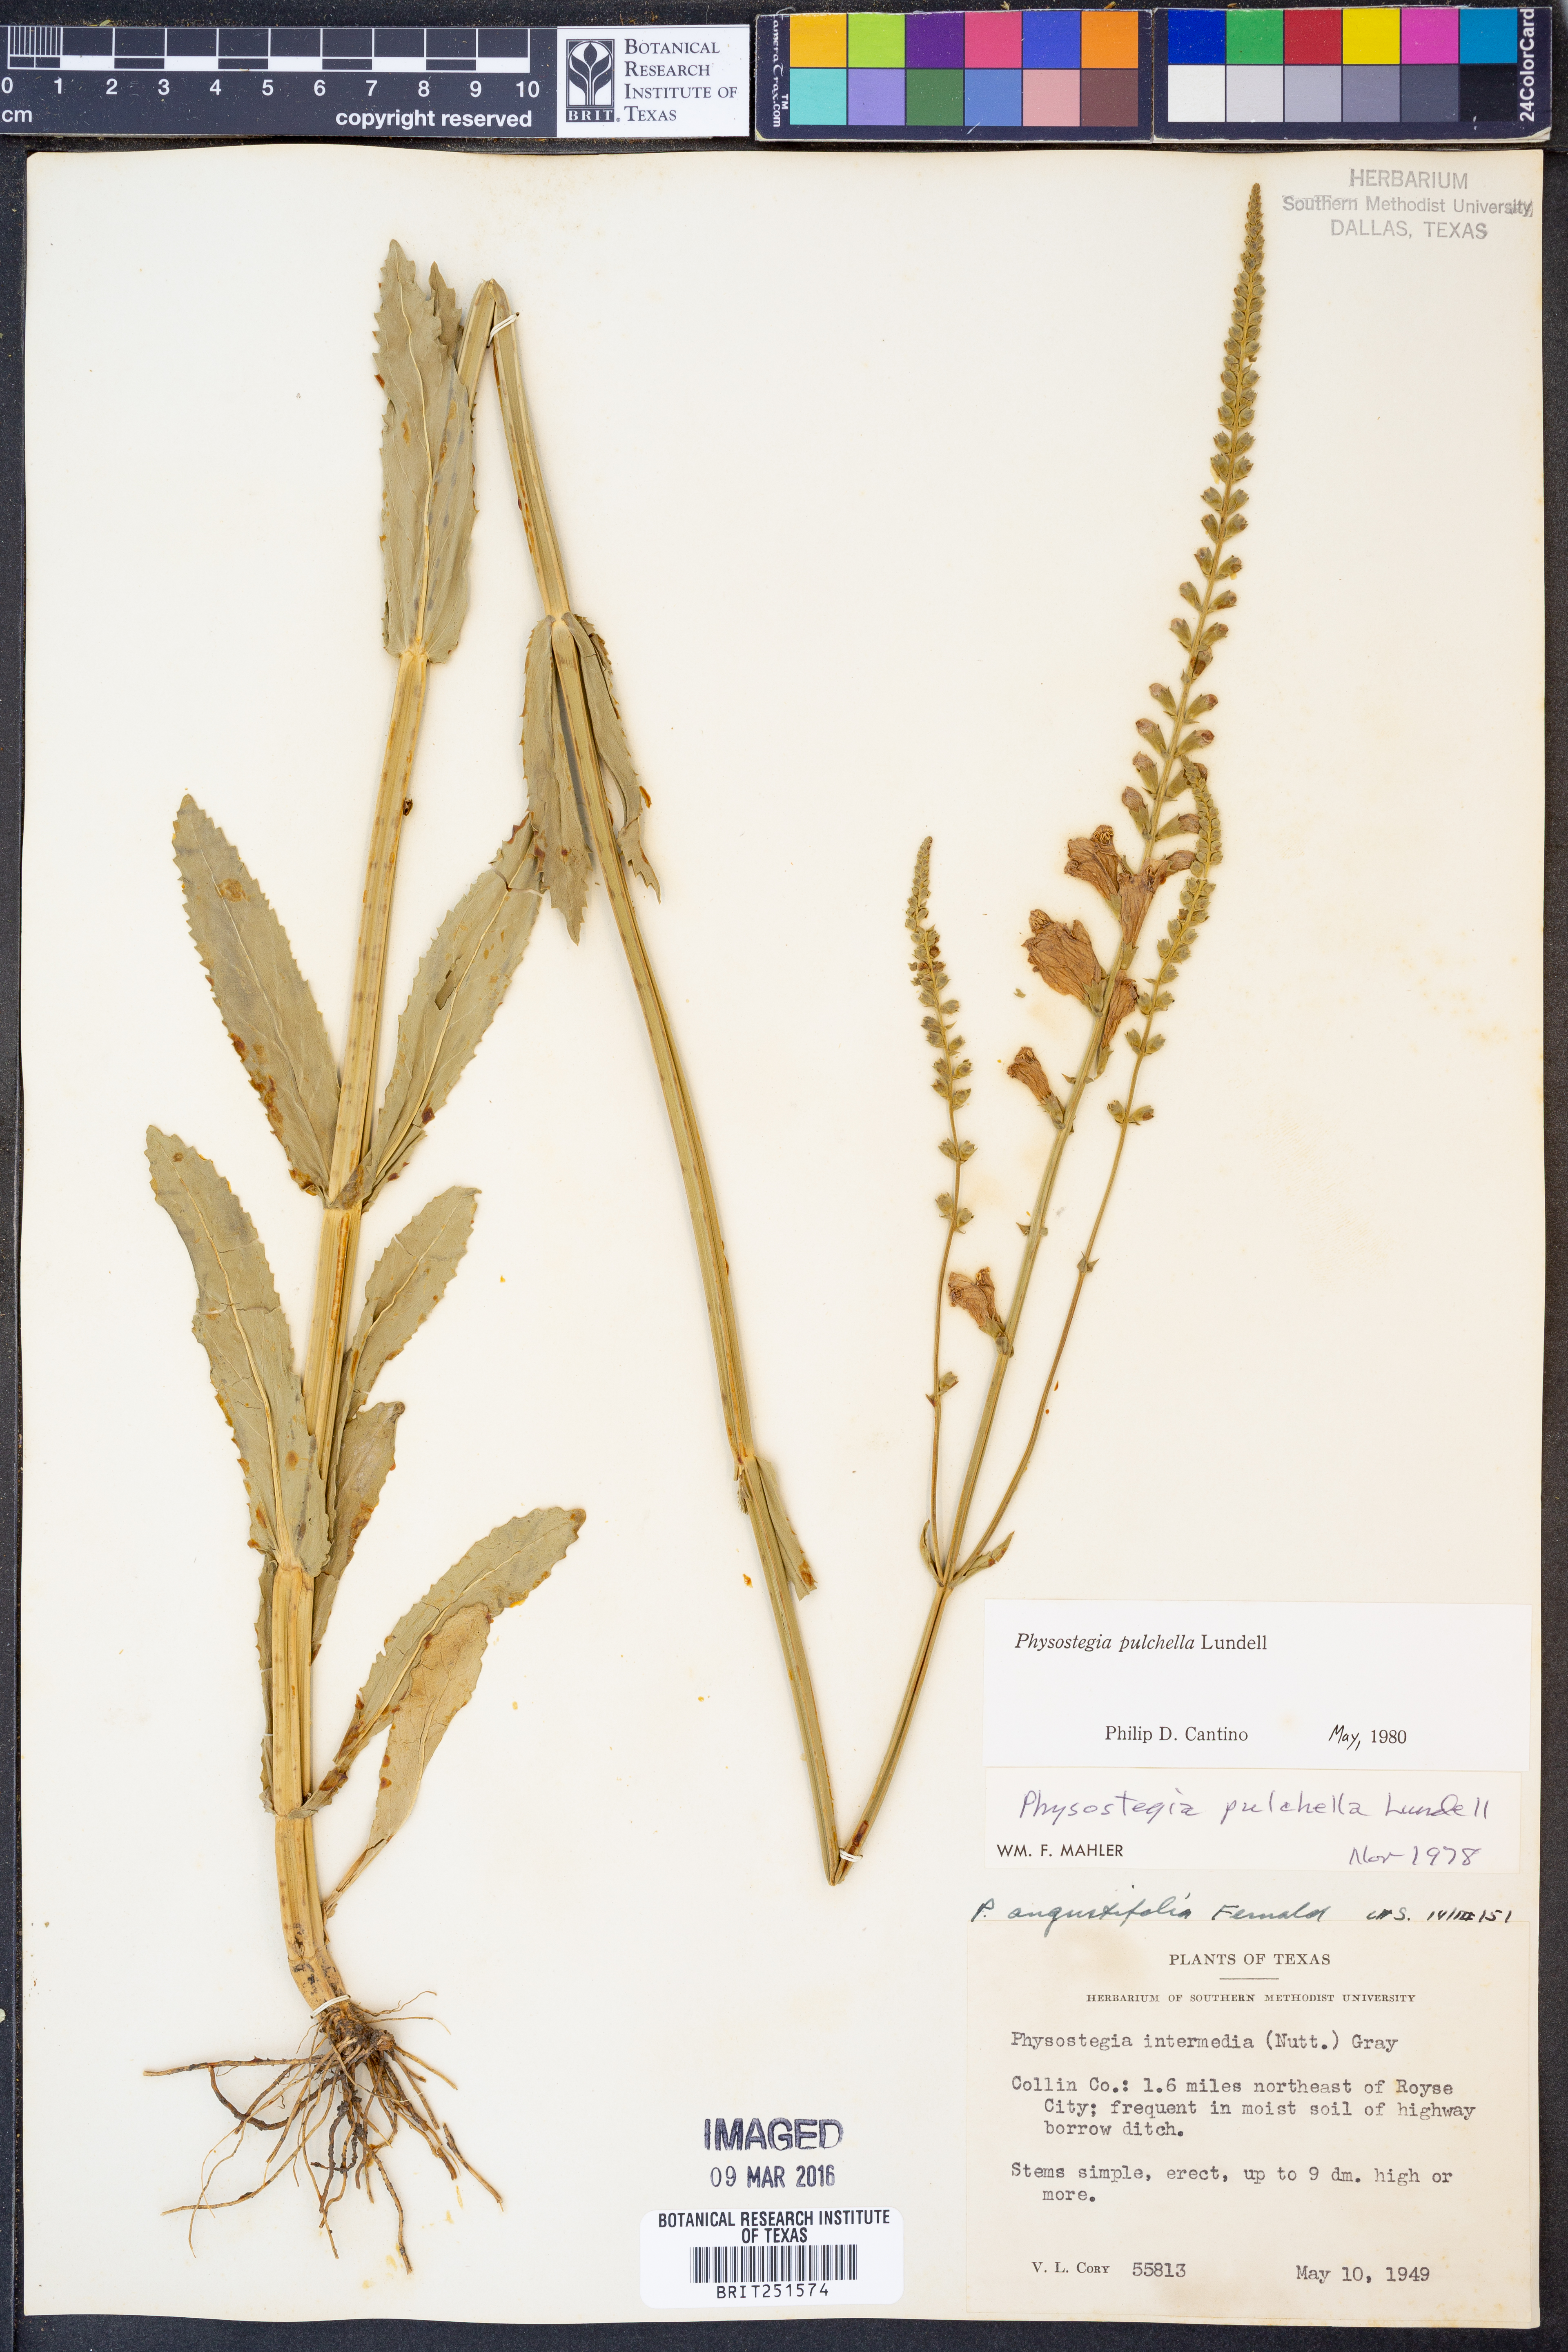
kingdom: Plantae
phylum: Tracheophyta
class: Magnoliopsida
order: Lamiales
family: Lamiaceae
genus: Physostegia
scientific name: Physostegia pulchella
